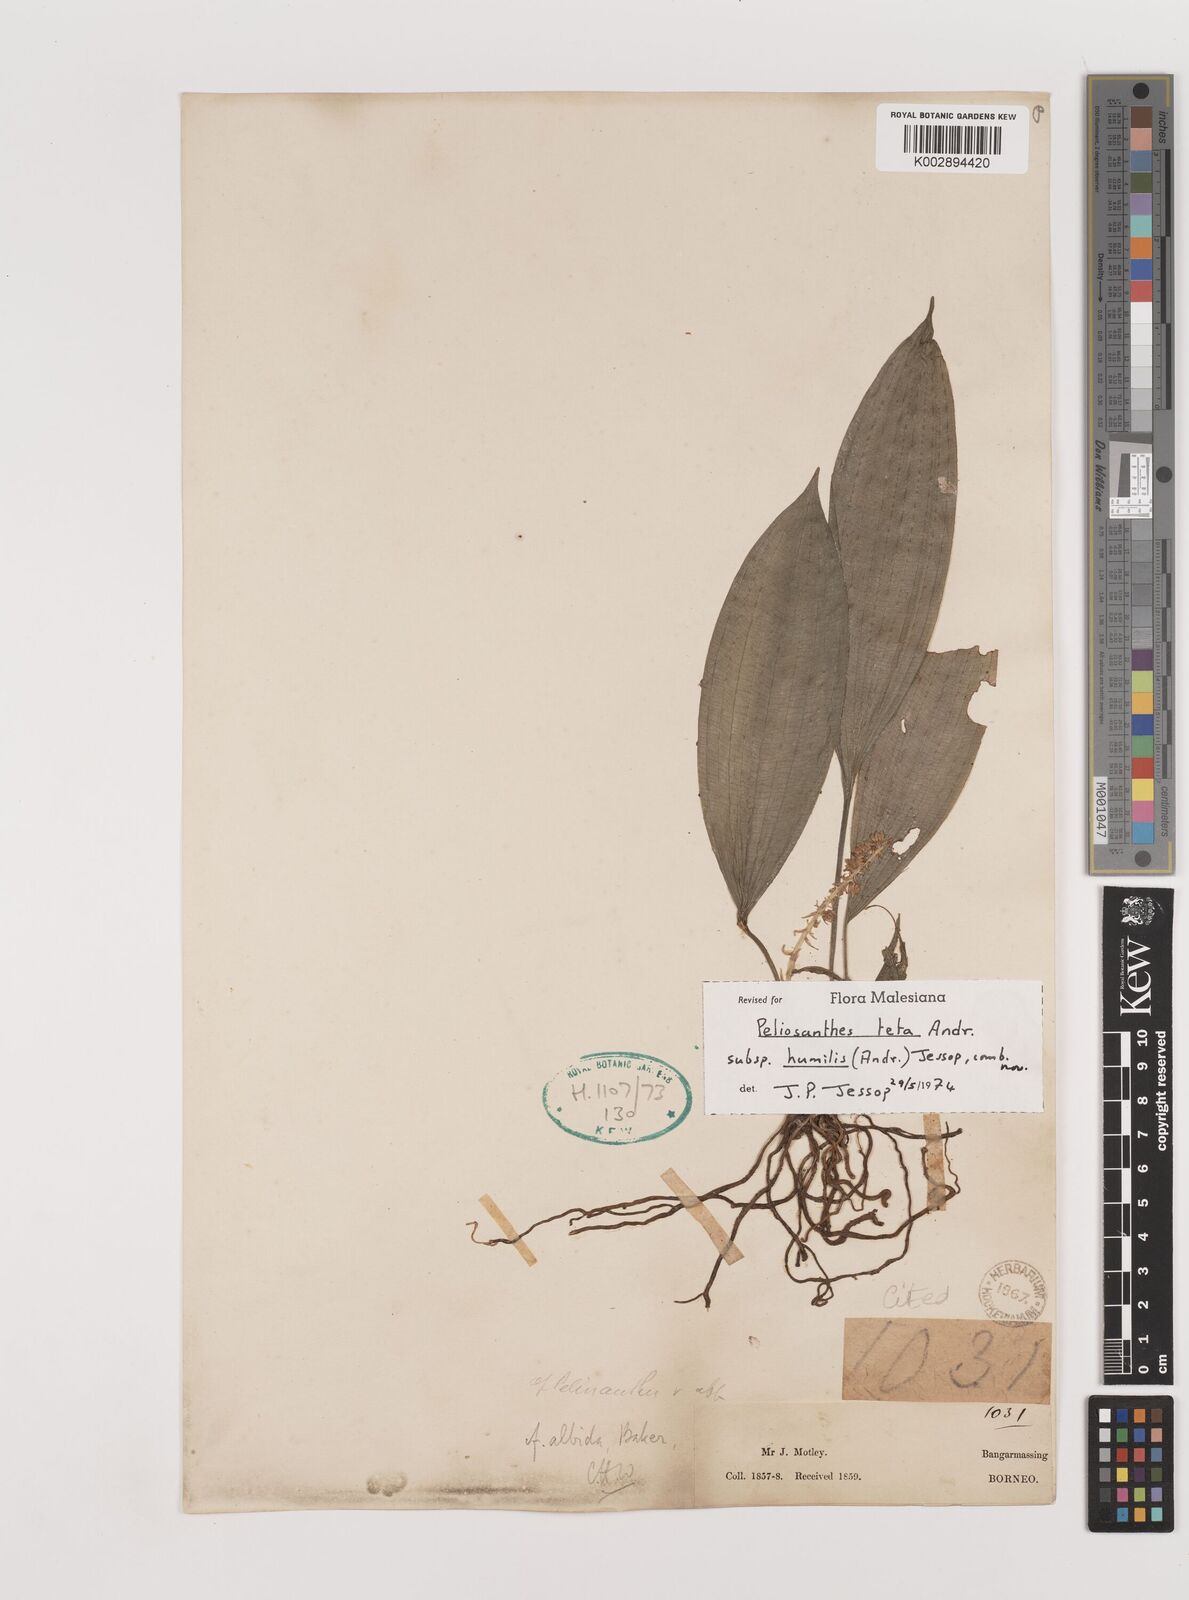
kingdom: Plantae
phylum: Tracheophyta
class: Liliopsida
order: Asparagales
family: Asparagaceae
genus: Peliosanthes
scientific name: Peliosanthes teta
